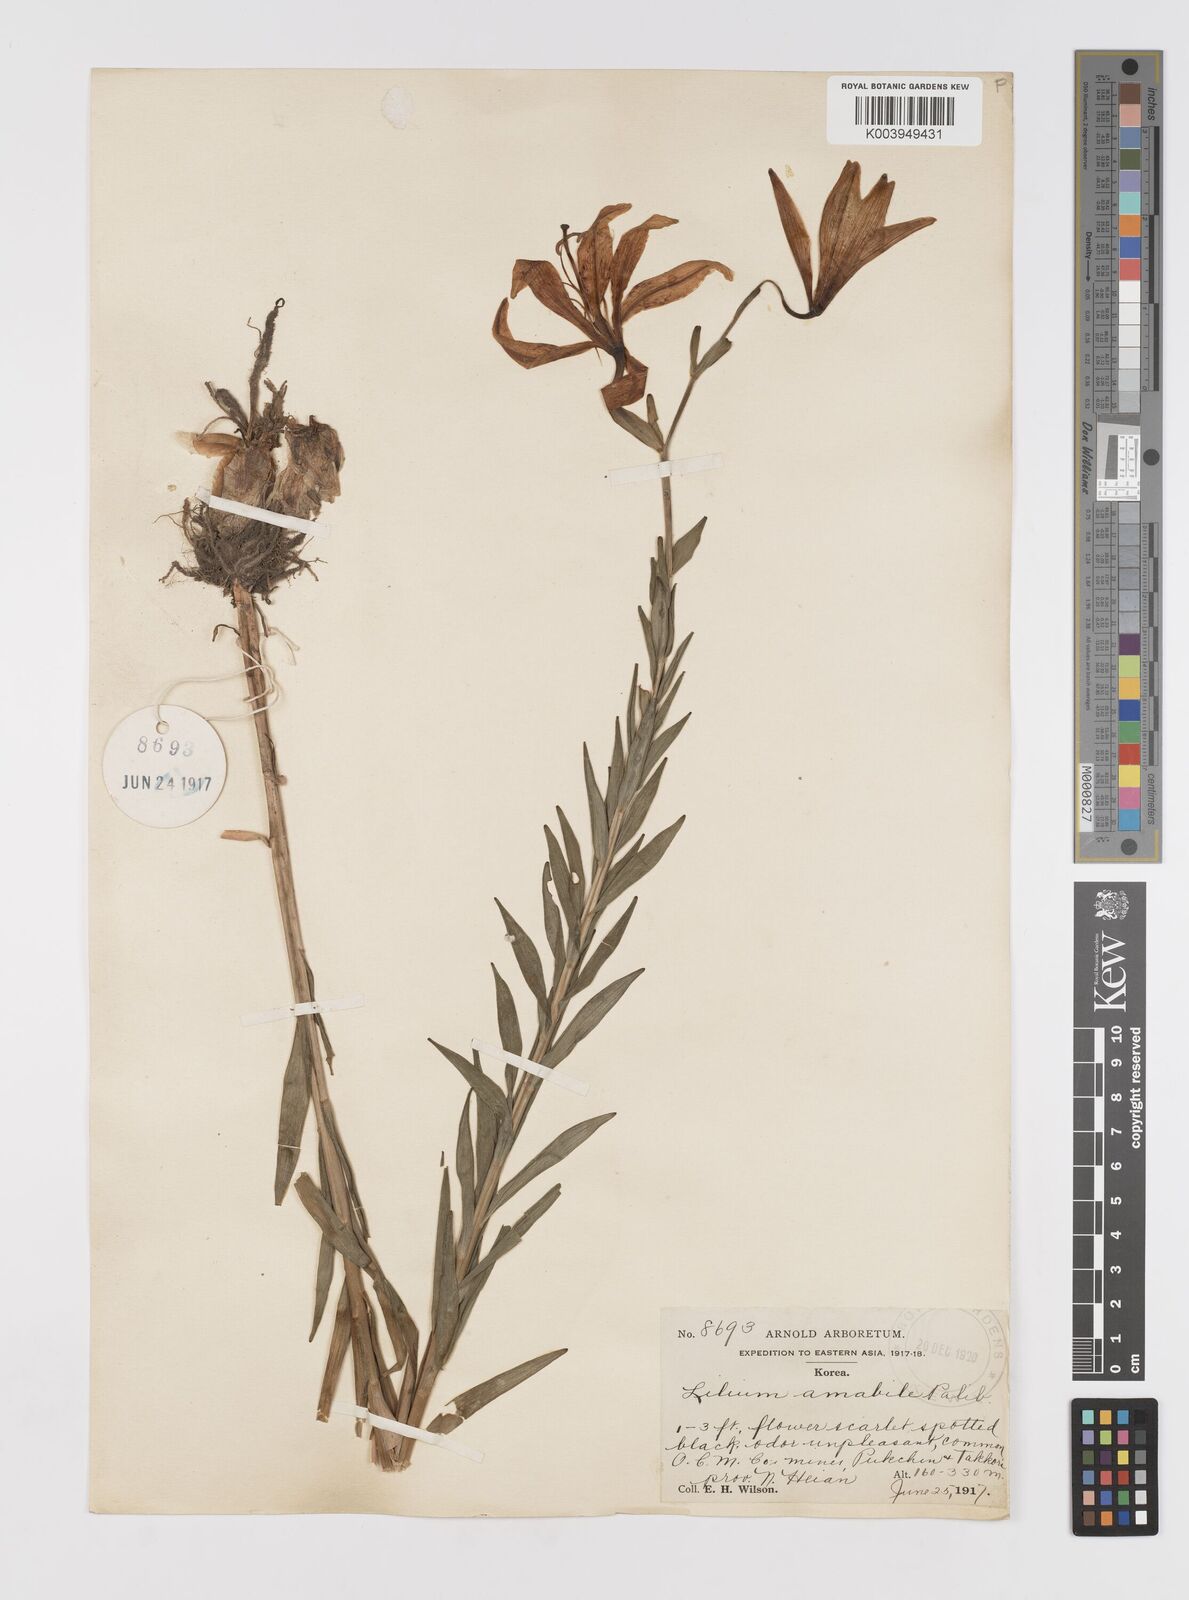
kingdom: Plantae
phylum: Tracheophyta
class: Liliopsida
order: Liliales
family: Liliaceae
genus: Lilium
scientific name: Lilium amabile
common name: Korean lily
